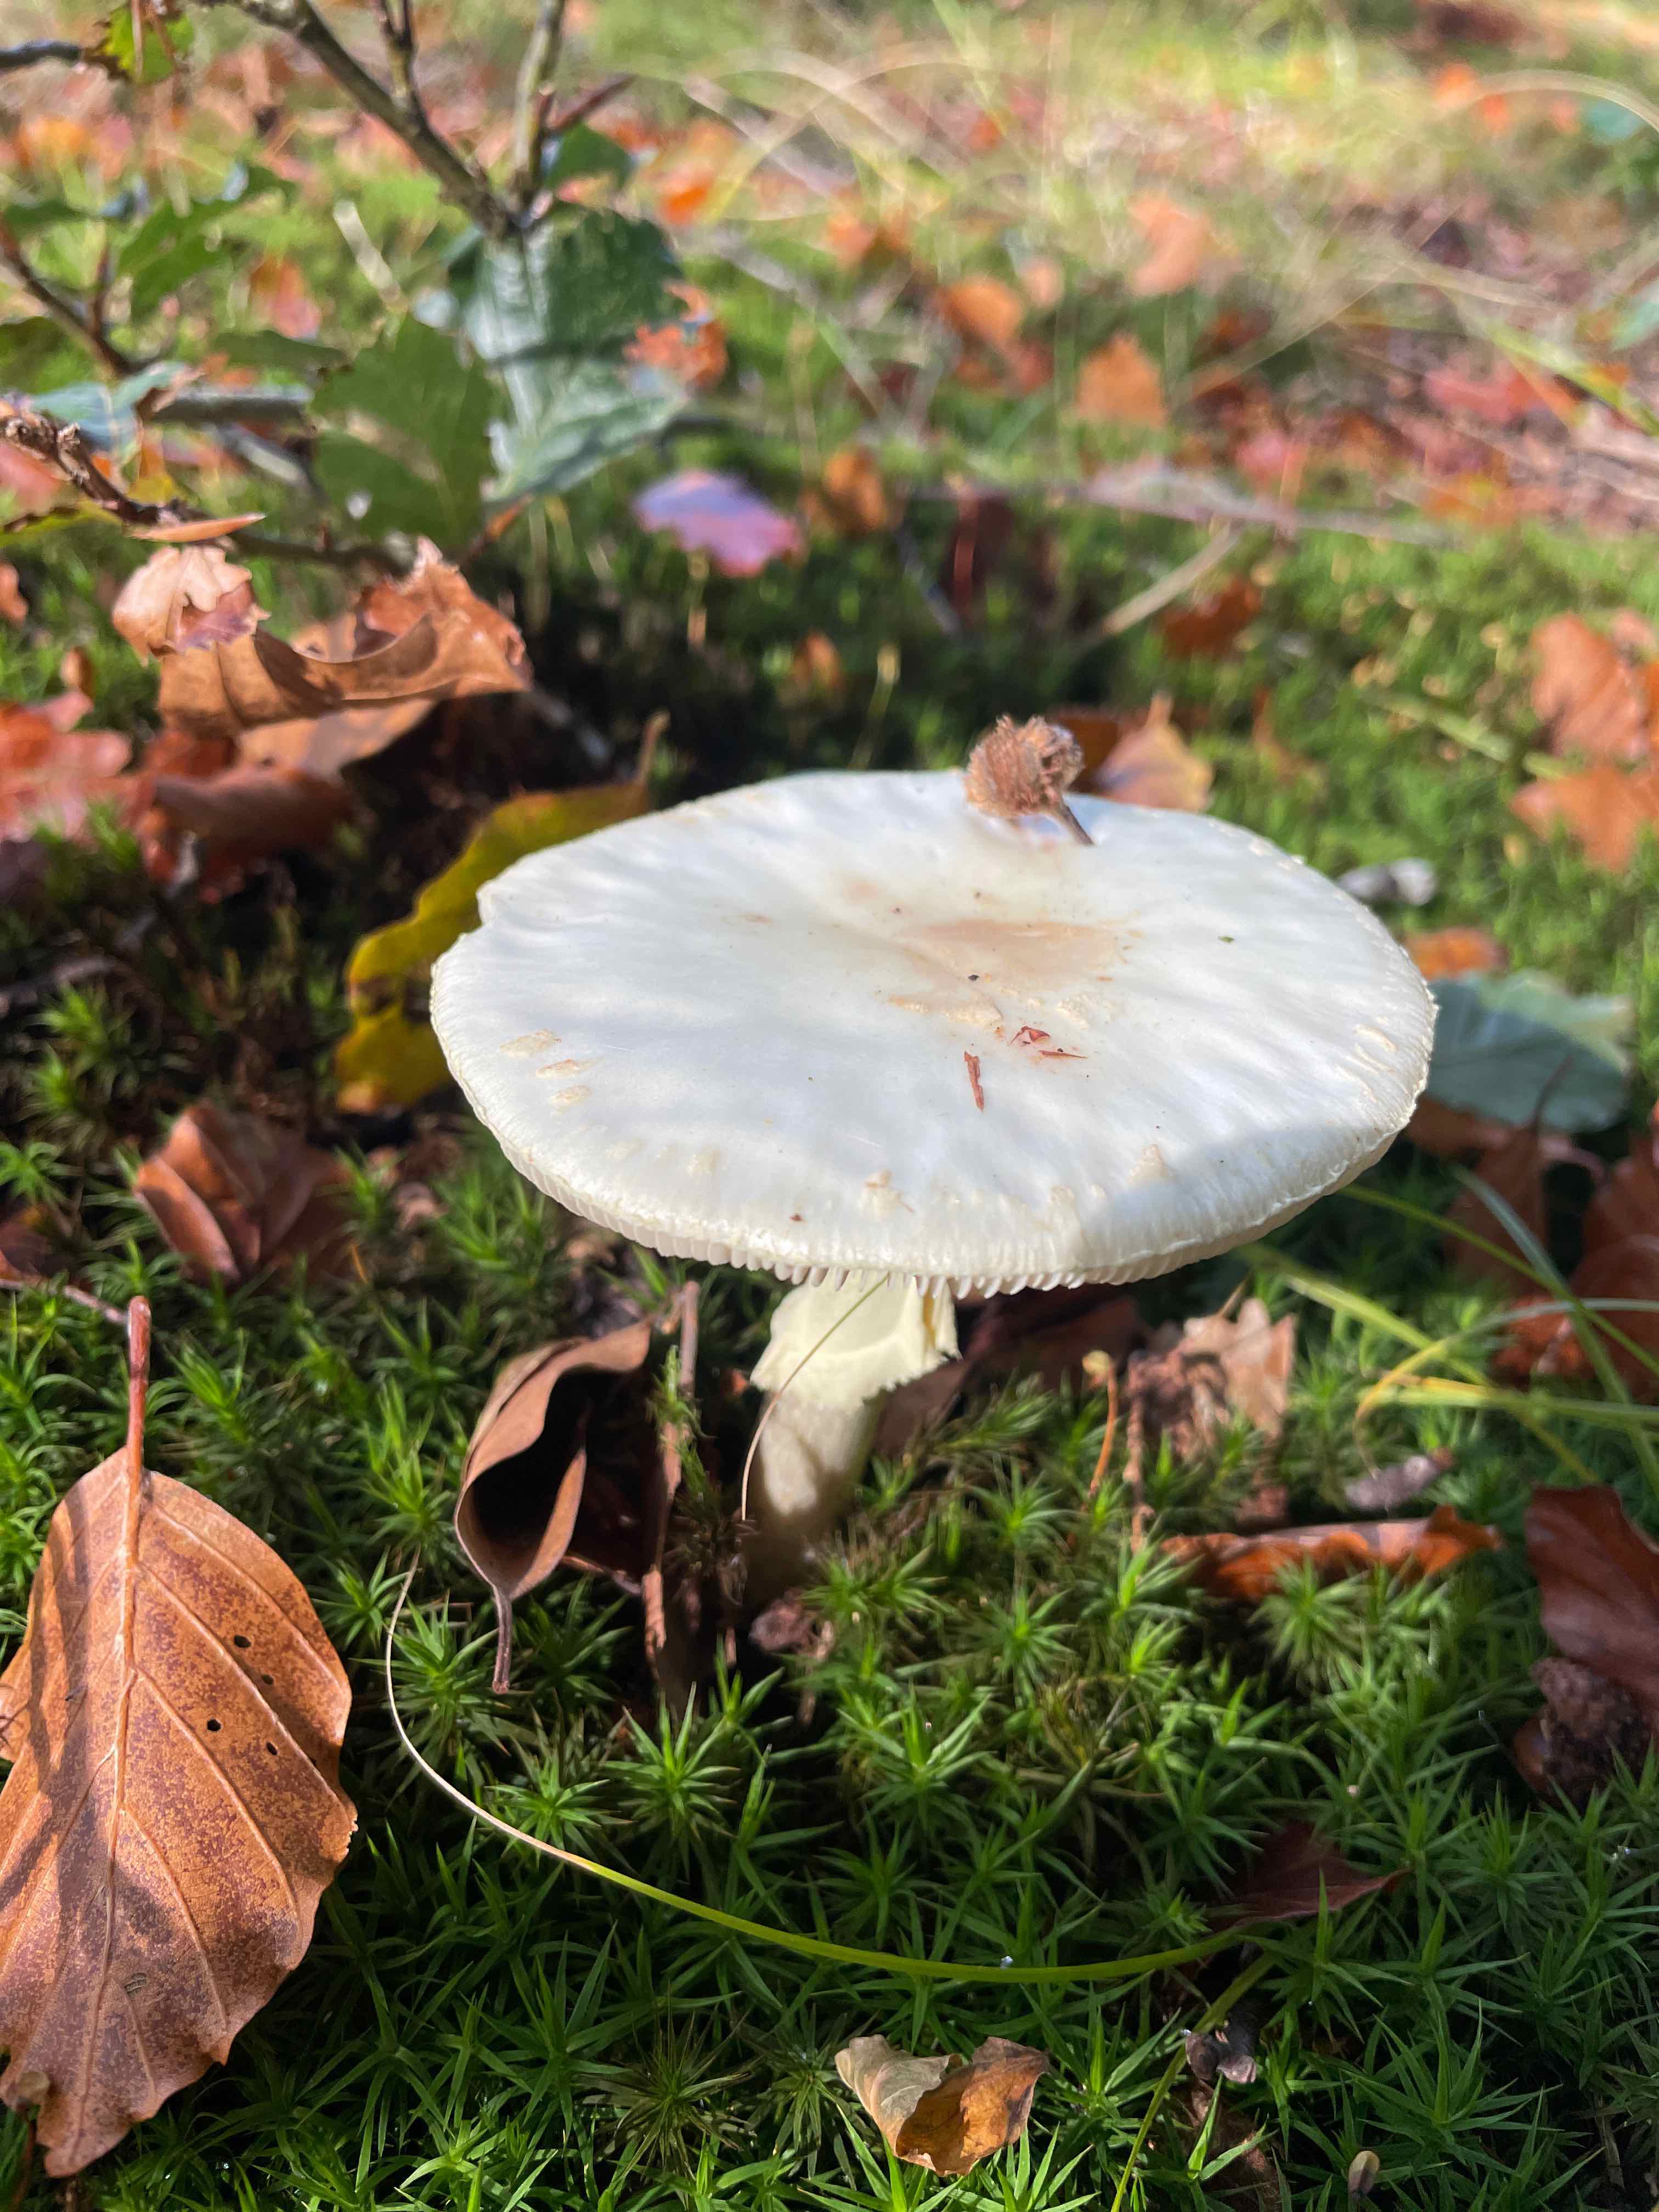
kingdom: Fungi
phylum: Basidiomycota
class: Agaricomycetes
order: Agaricales
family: Amanitaceae
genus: Amanita
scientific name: Amanita citrina
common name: kugleknoldet fluesvamp
